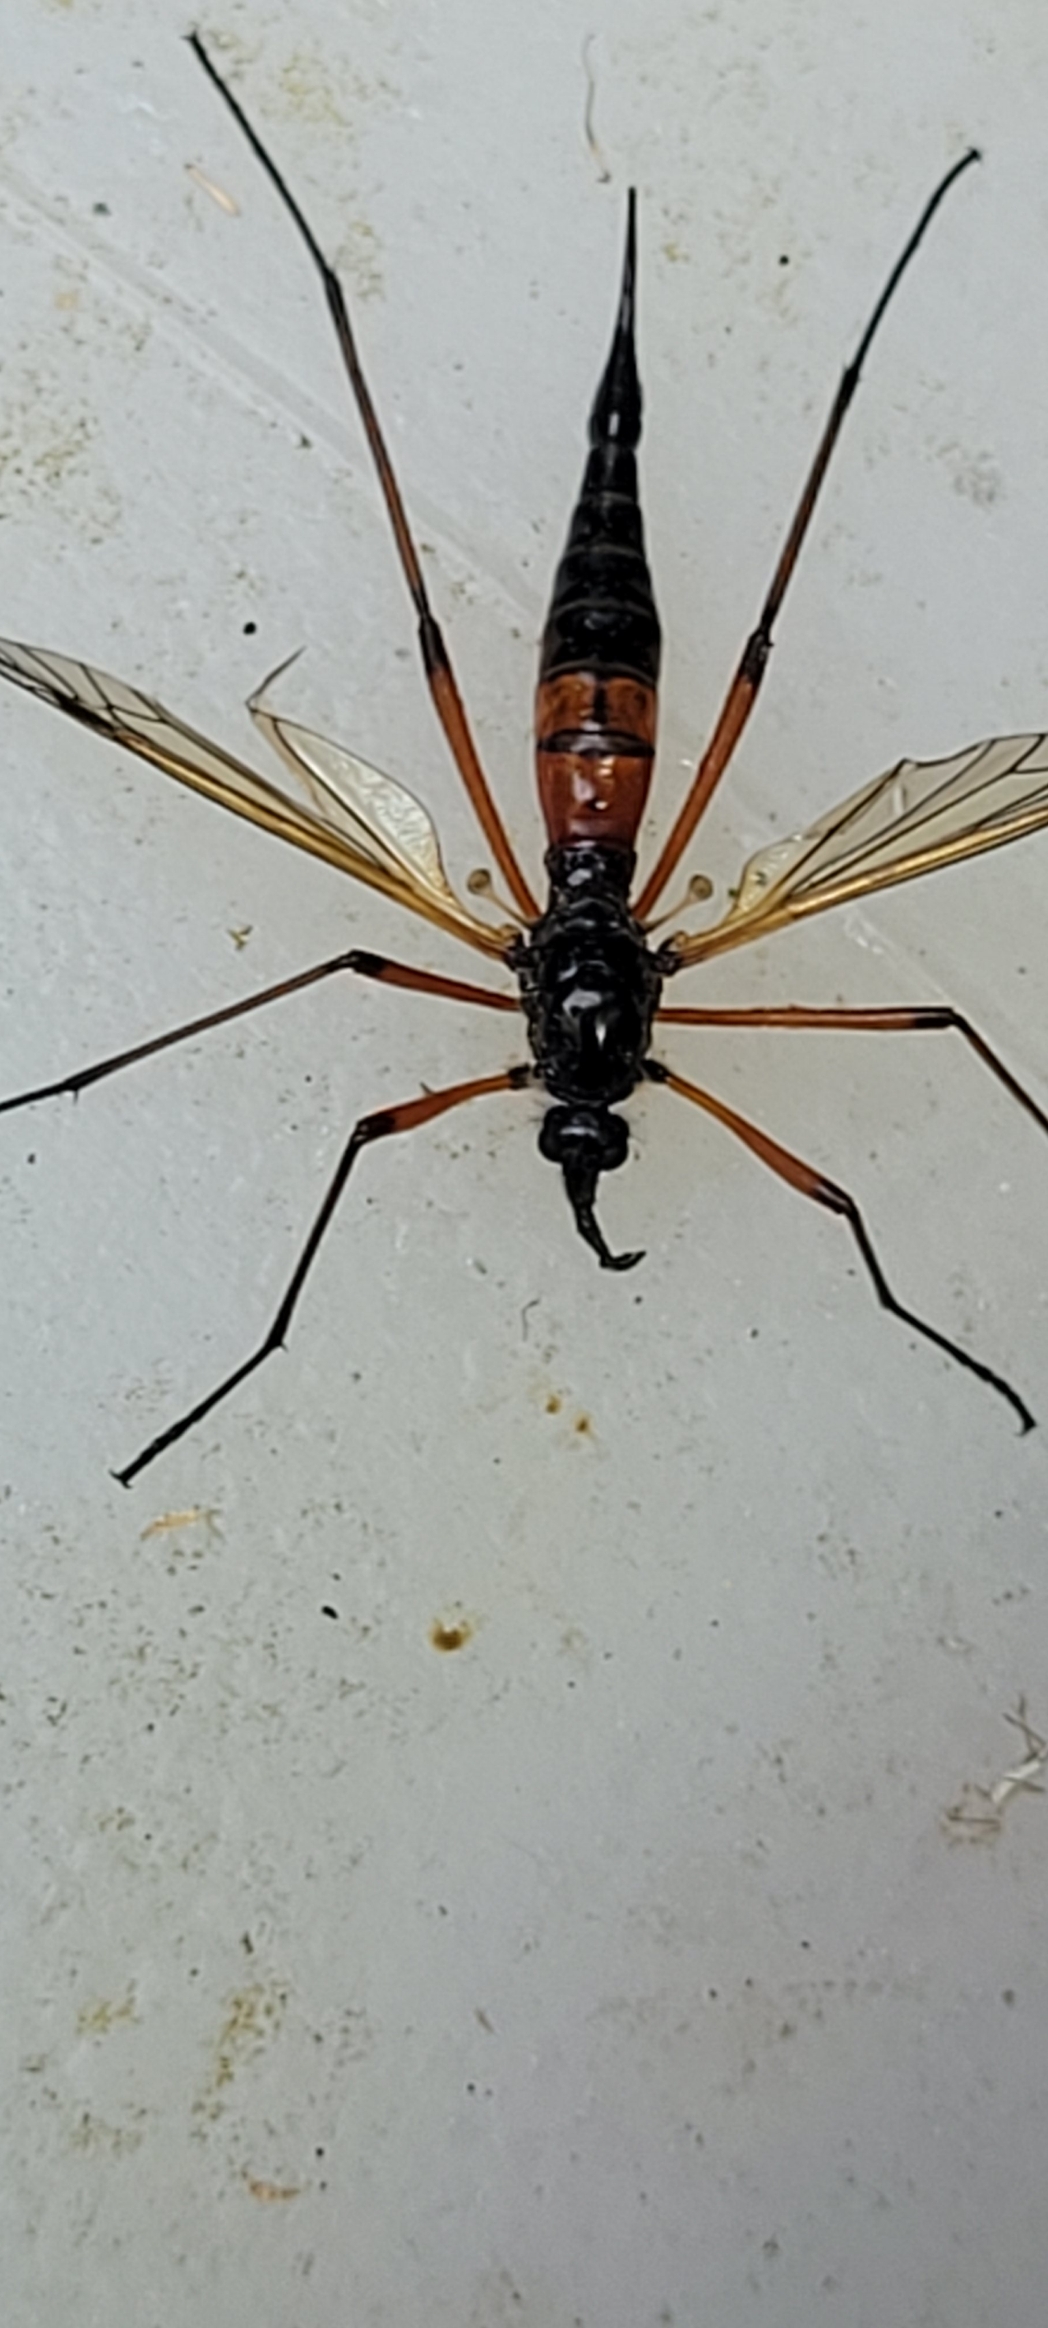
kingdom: Animalia
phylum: Arthropoda
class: Insecta
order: Diptera
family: Tipulidae
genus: Tanyptera
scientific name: Tanyptera nigricornis
